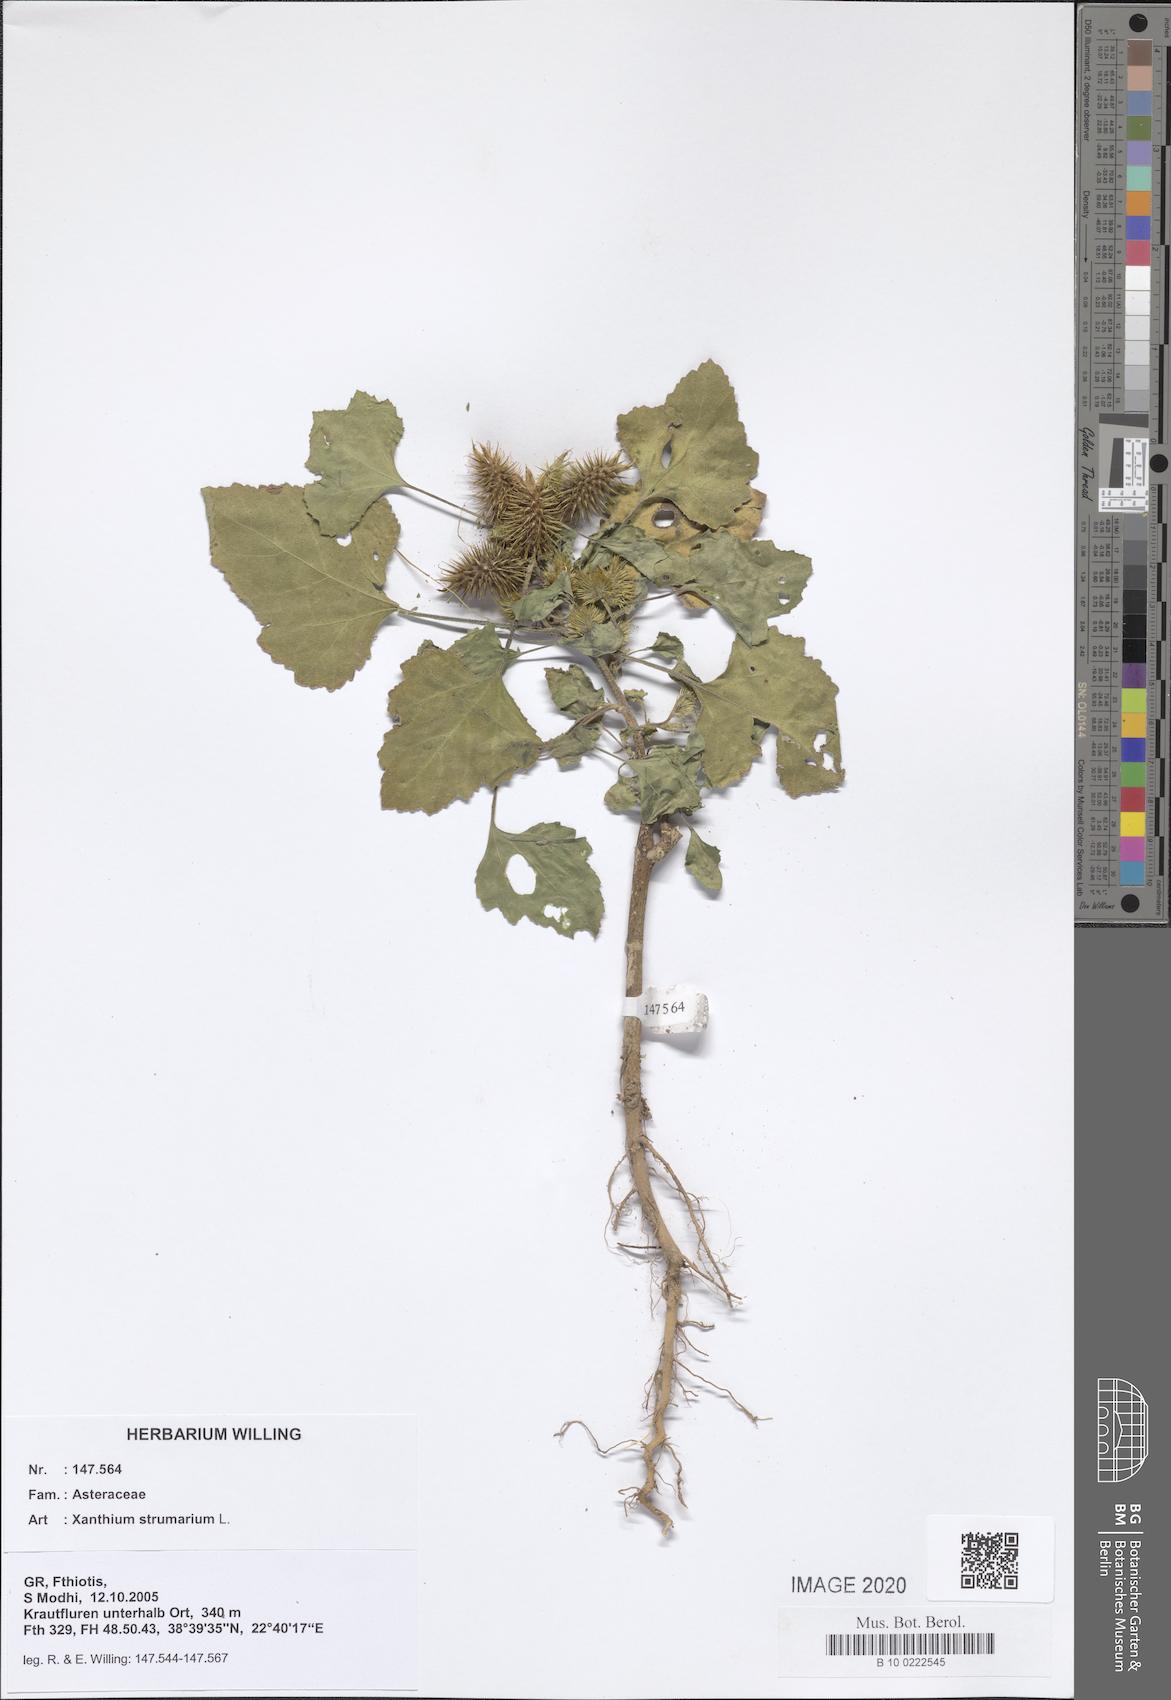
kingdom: Plantae
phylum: Tracheophyta
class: Magnoliopsida
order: Asterales
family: Asteraceae
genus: Xanthium
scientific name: Xanthium strumarium
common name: Rough cocklebur
